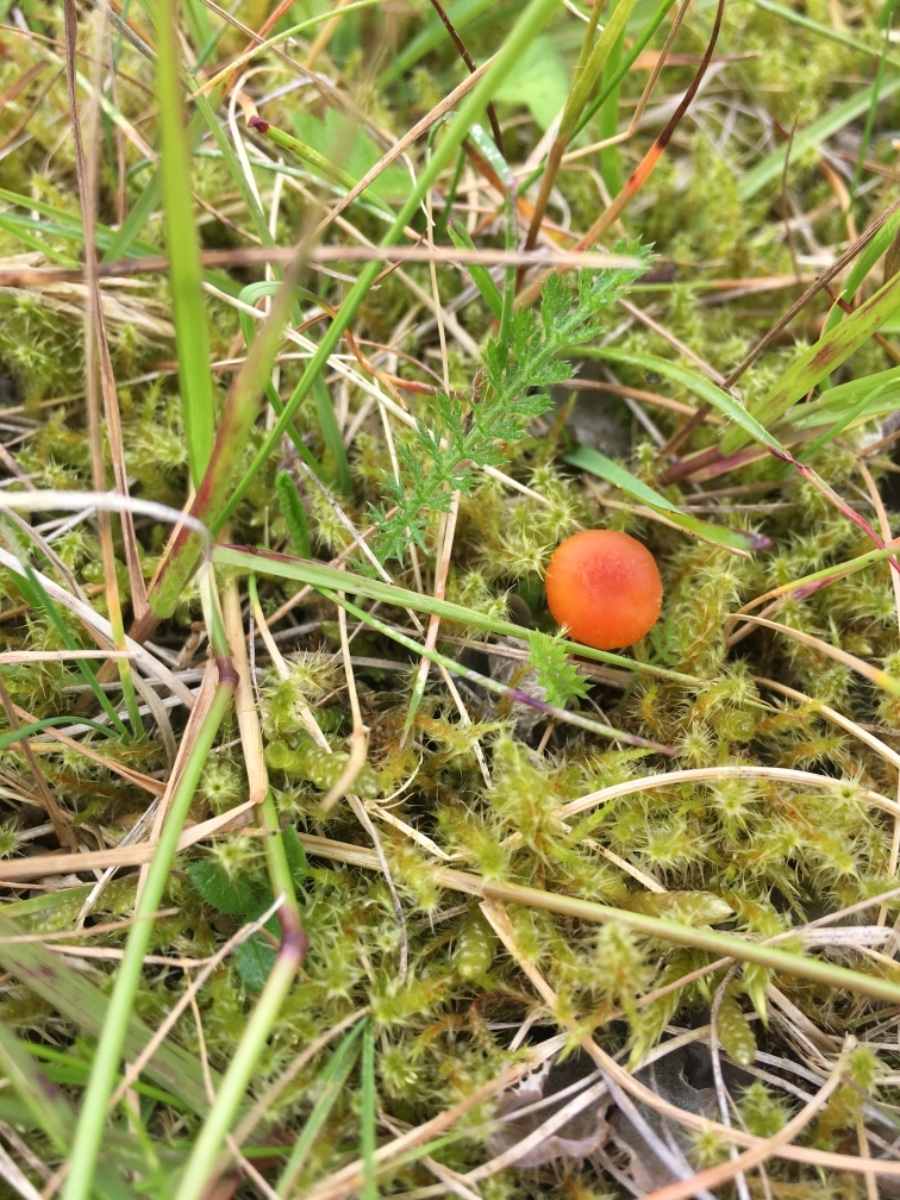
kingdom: Fungi
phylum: Basidiomycota
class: Agaricomycetes
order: Agaricales
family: Hygrophoraceae
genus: Hygrocybe
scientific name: Hygrocybe cantharellus
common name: kantarel-vokshat
